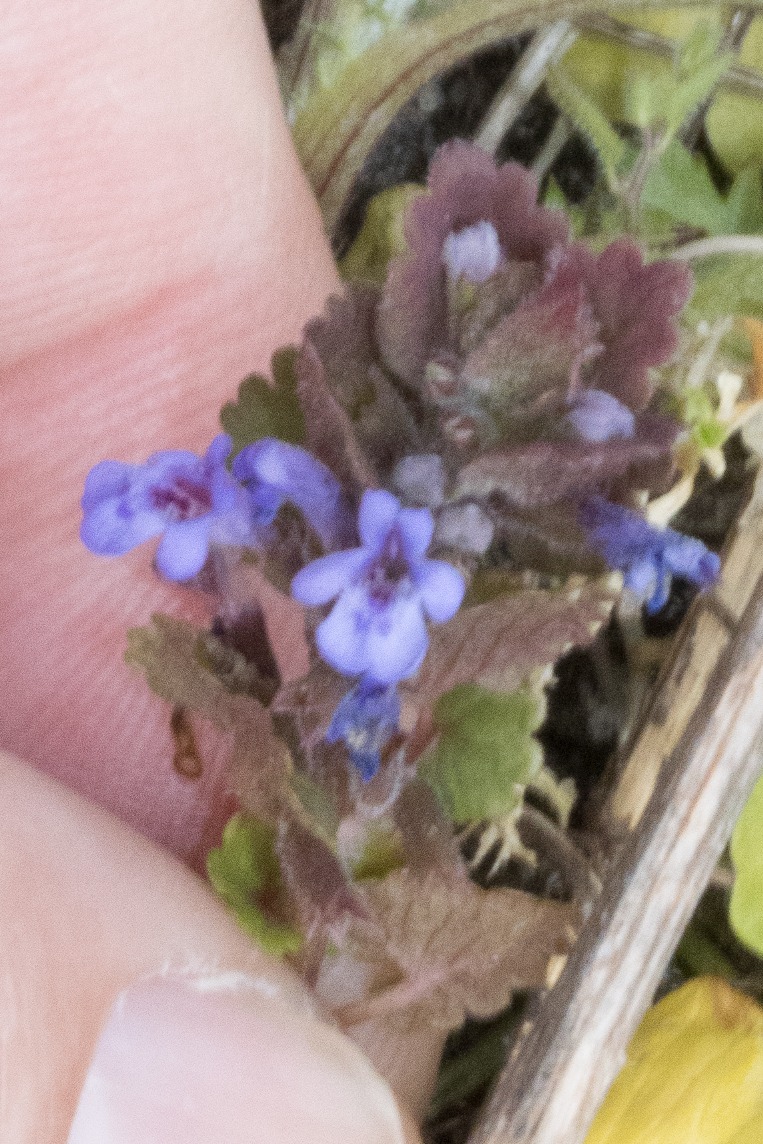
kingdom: Plantae
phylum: Tracheophyta
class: Magnoliopsida
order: Lamiales
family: Lamiaceae
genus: Glechoma
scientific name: Glechoma hederacea
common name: Korsknap
